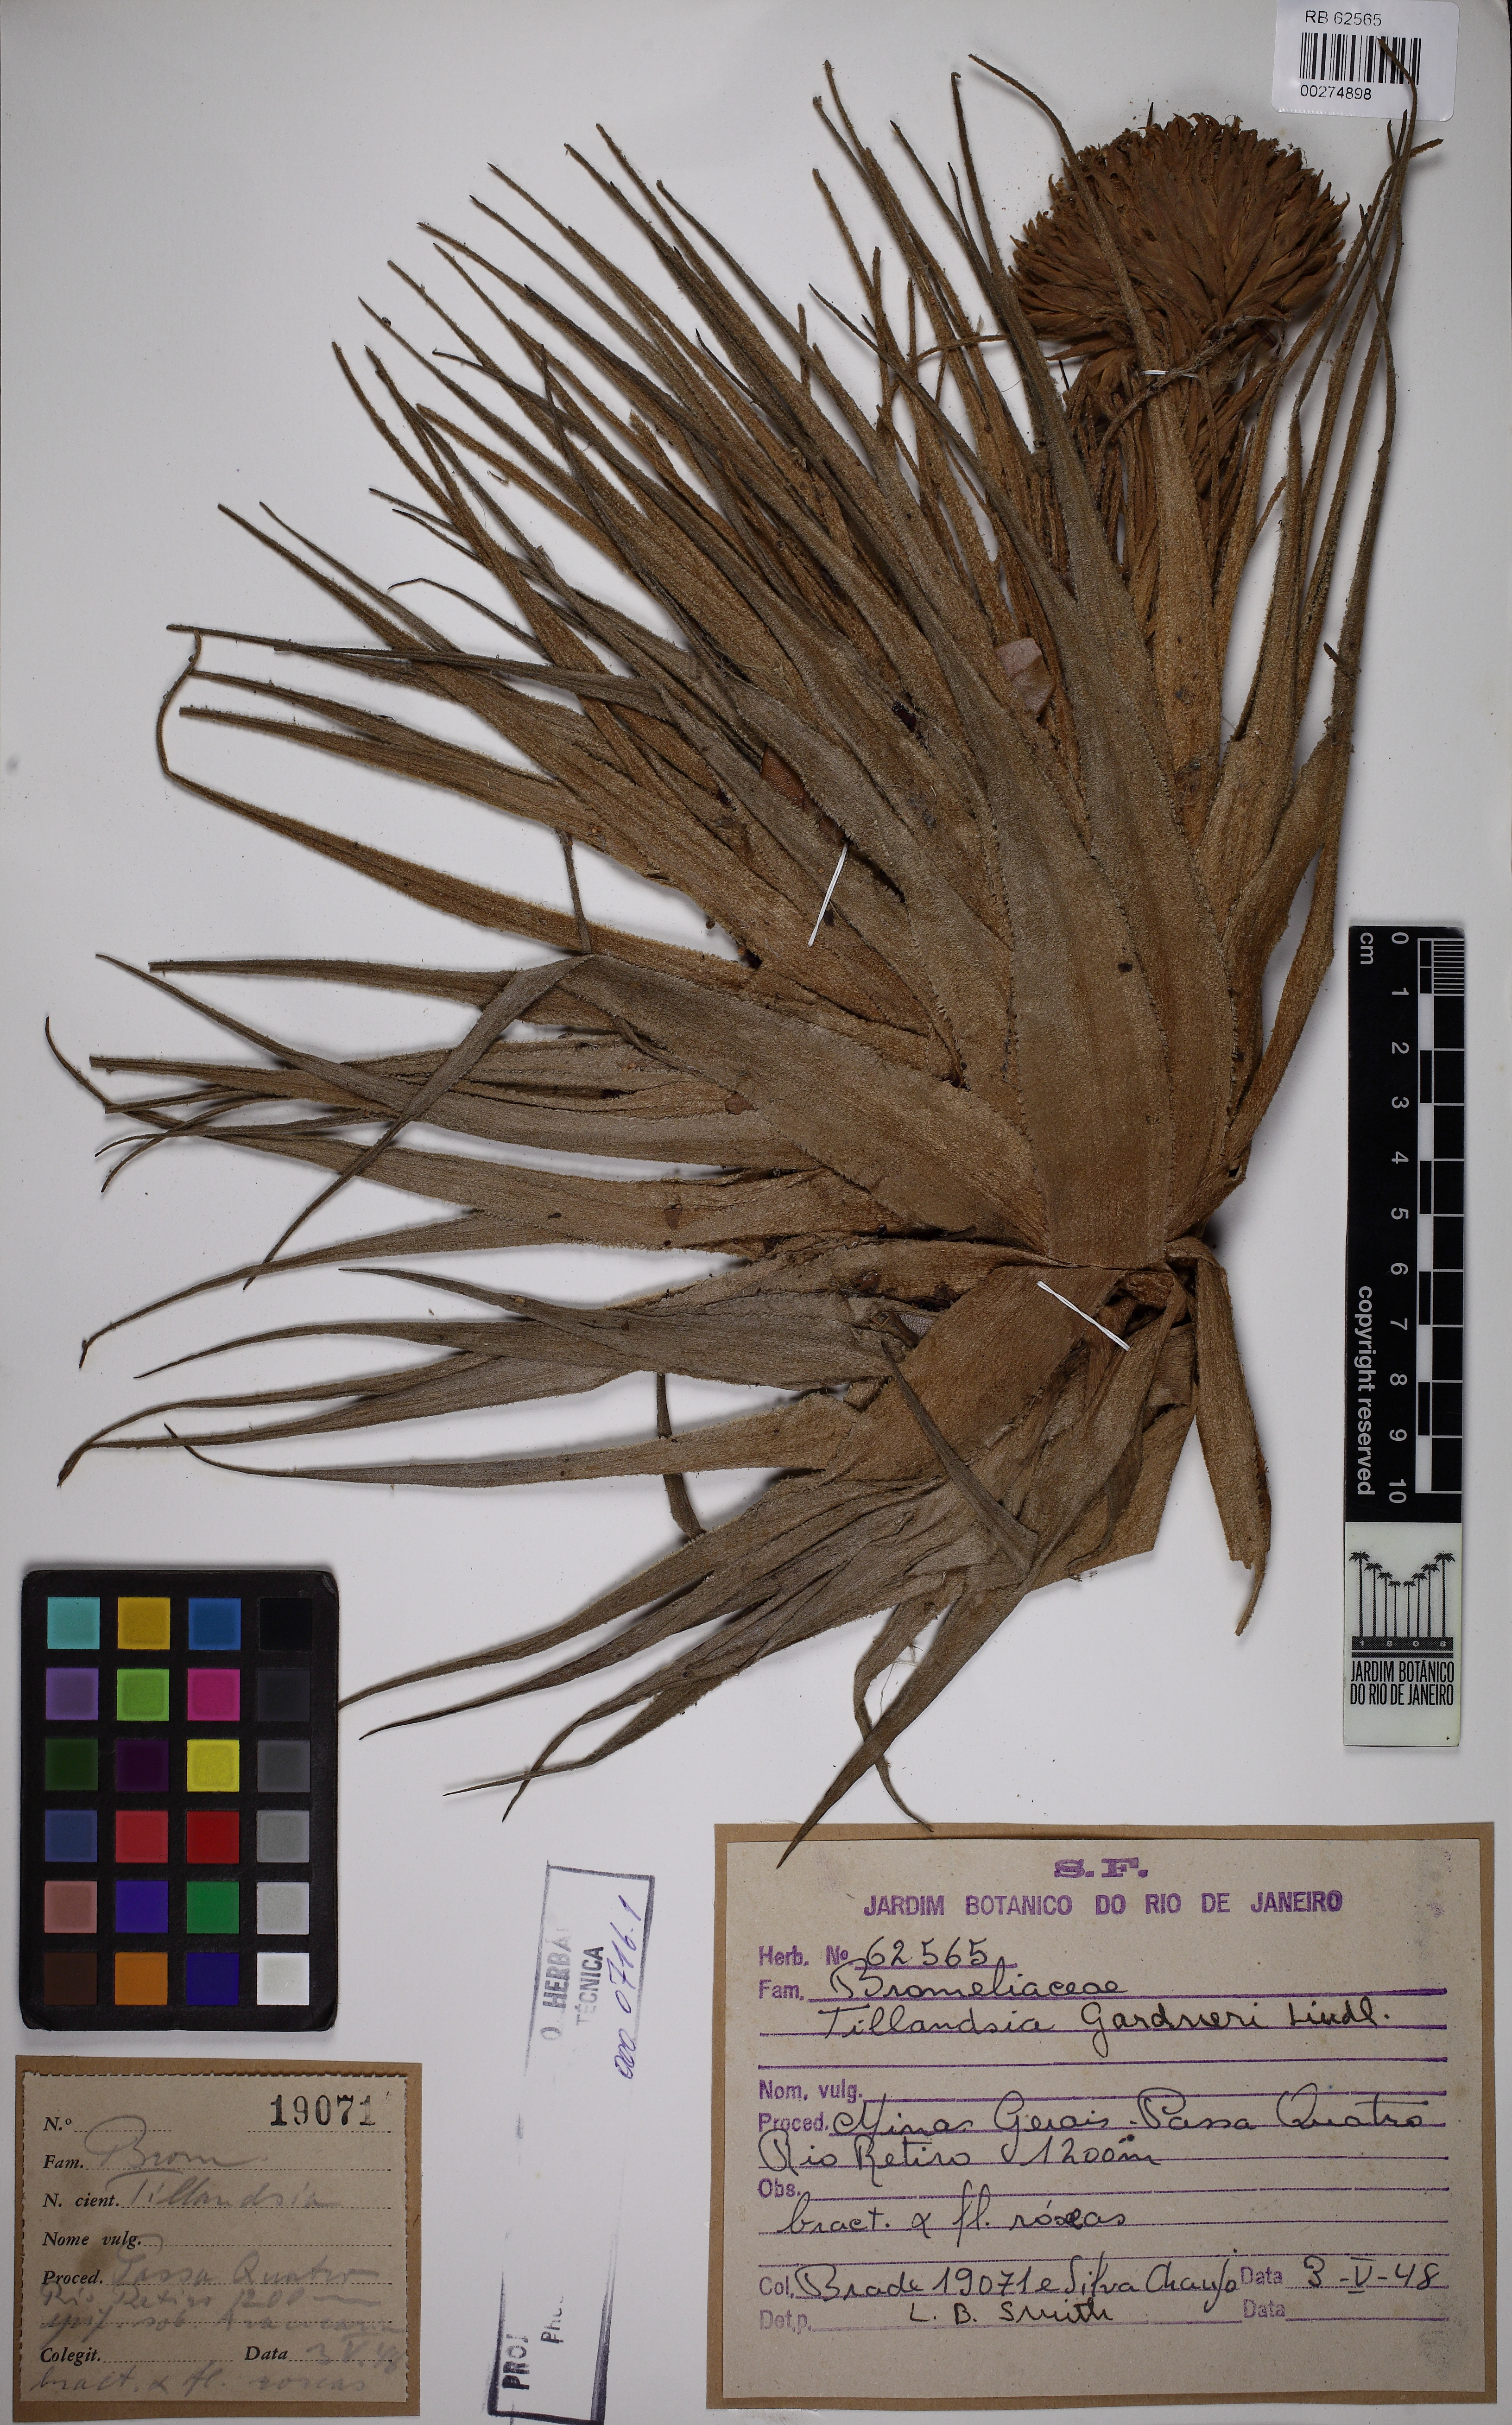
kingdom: Plantae
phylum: Tracheophyta
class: Liliopsida
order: Poales
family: Bromeliaceae
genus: Tillandsia
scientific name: Tillandsia gardneri
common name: Airplant
